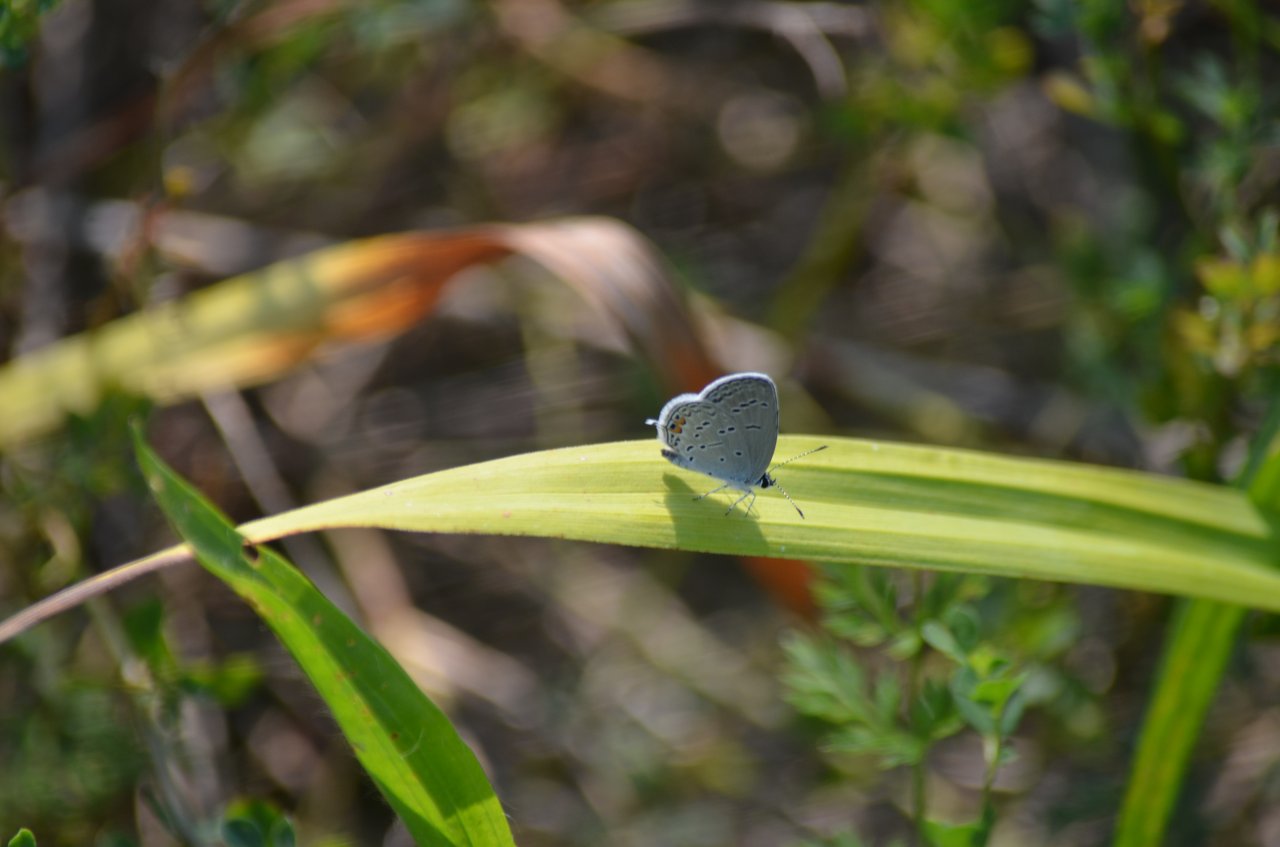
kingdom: Animalia
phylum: Arthropoda
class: Insecta
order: Lepidoptera
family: Lycaenidae
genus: Elkalyce
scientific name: Elkalyce comyntas
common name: Eastern Tailed-Blue
